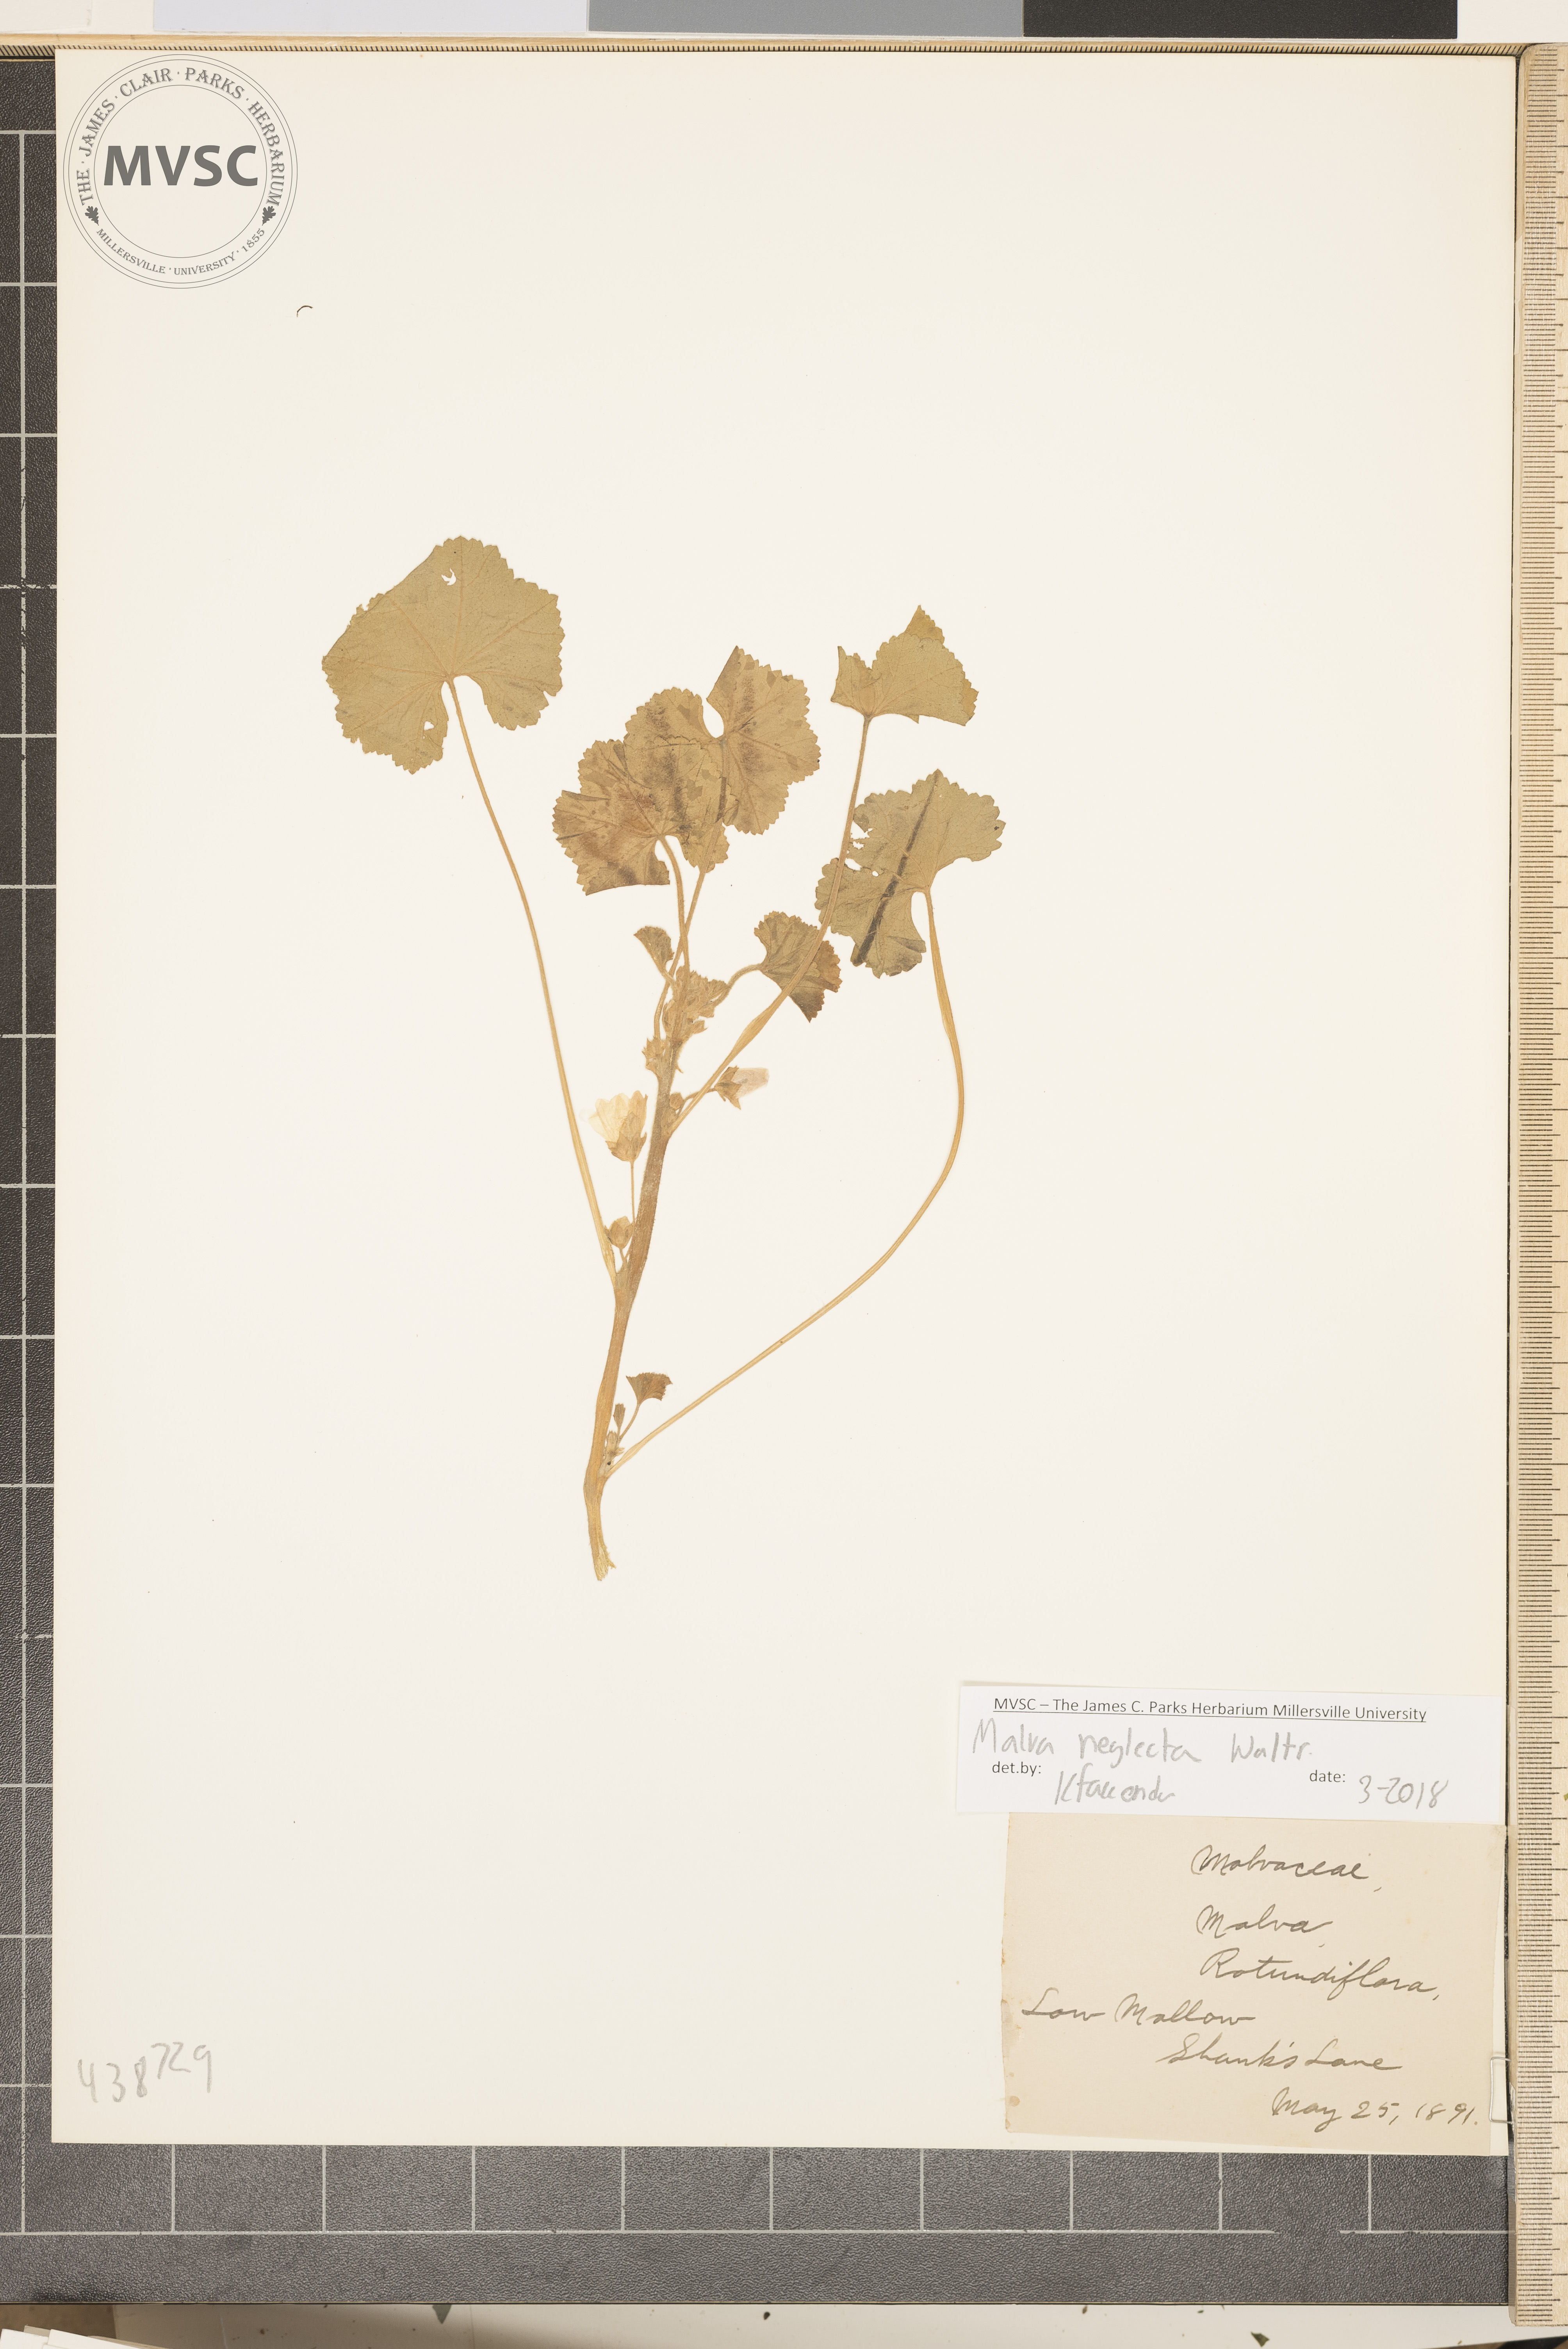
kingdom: Plantae
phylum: Tracheophyta
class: Magnoliopsida
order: Malvales
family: Malvaceae
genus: Malva
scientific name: Malva neglecta
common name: Low Mallow
